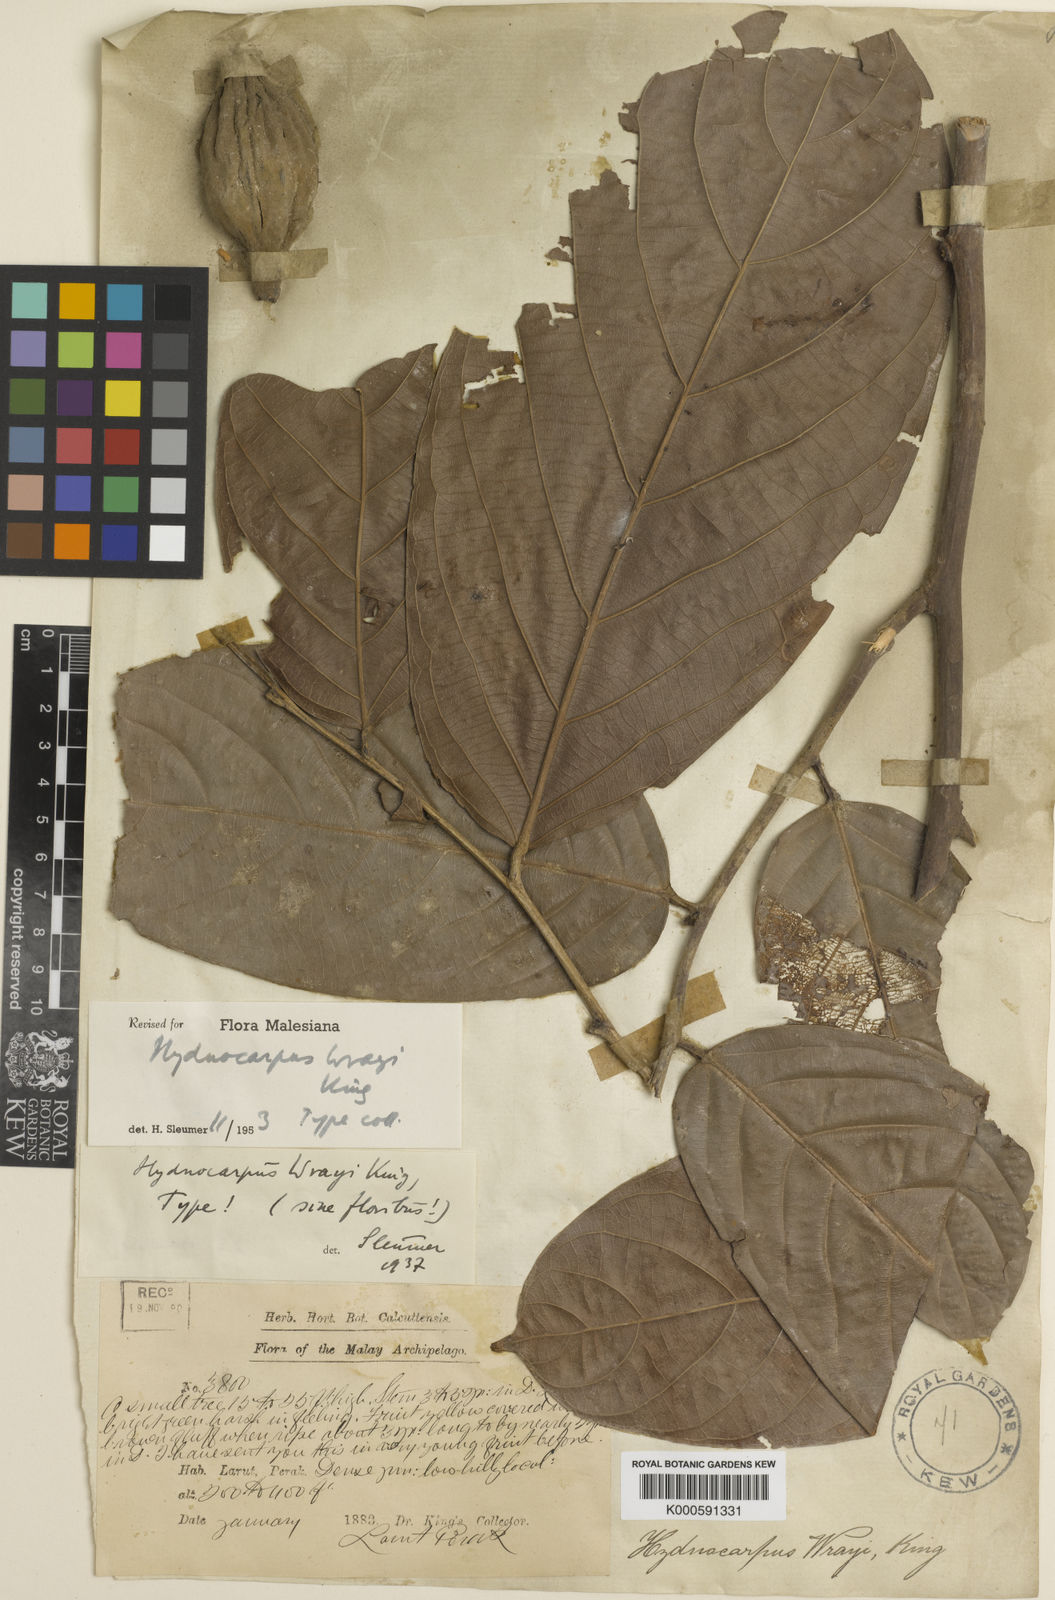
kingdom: Plantae
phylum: Tracheophyta
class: Magnoliopsida
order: Malpighiales
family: Achariaceae
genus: Hydnocarpus
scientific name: Hydnocarpus wrayi
